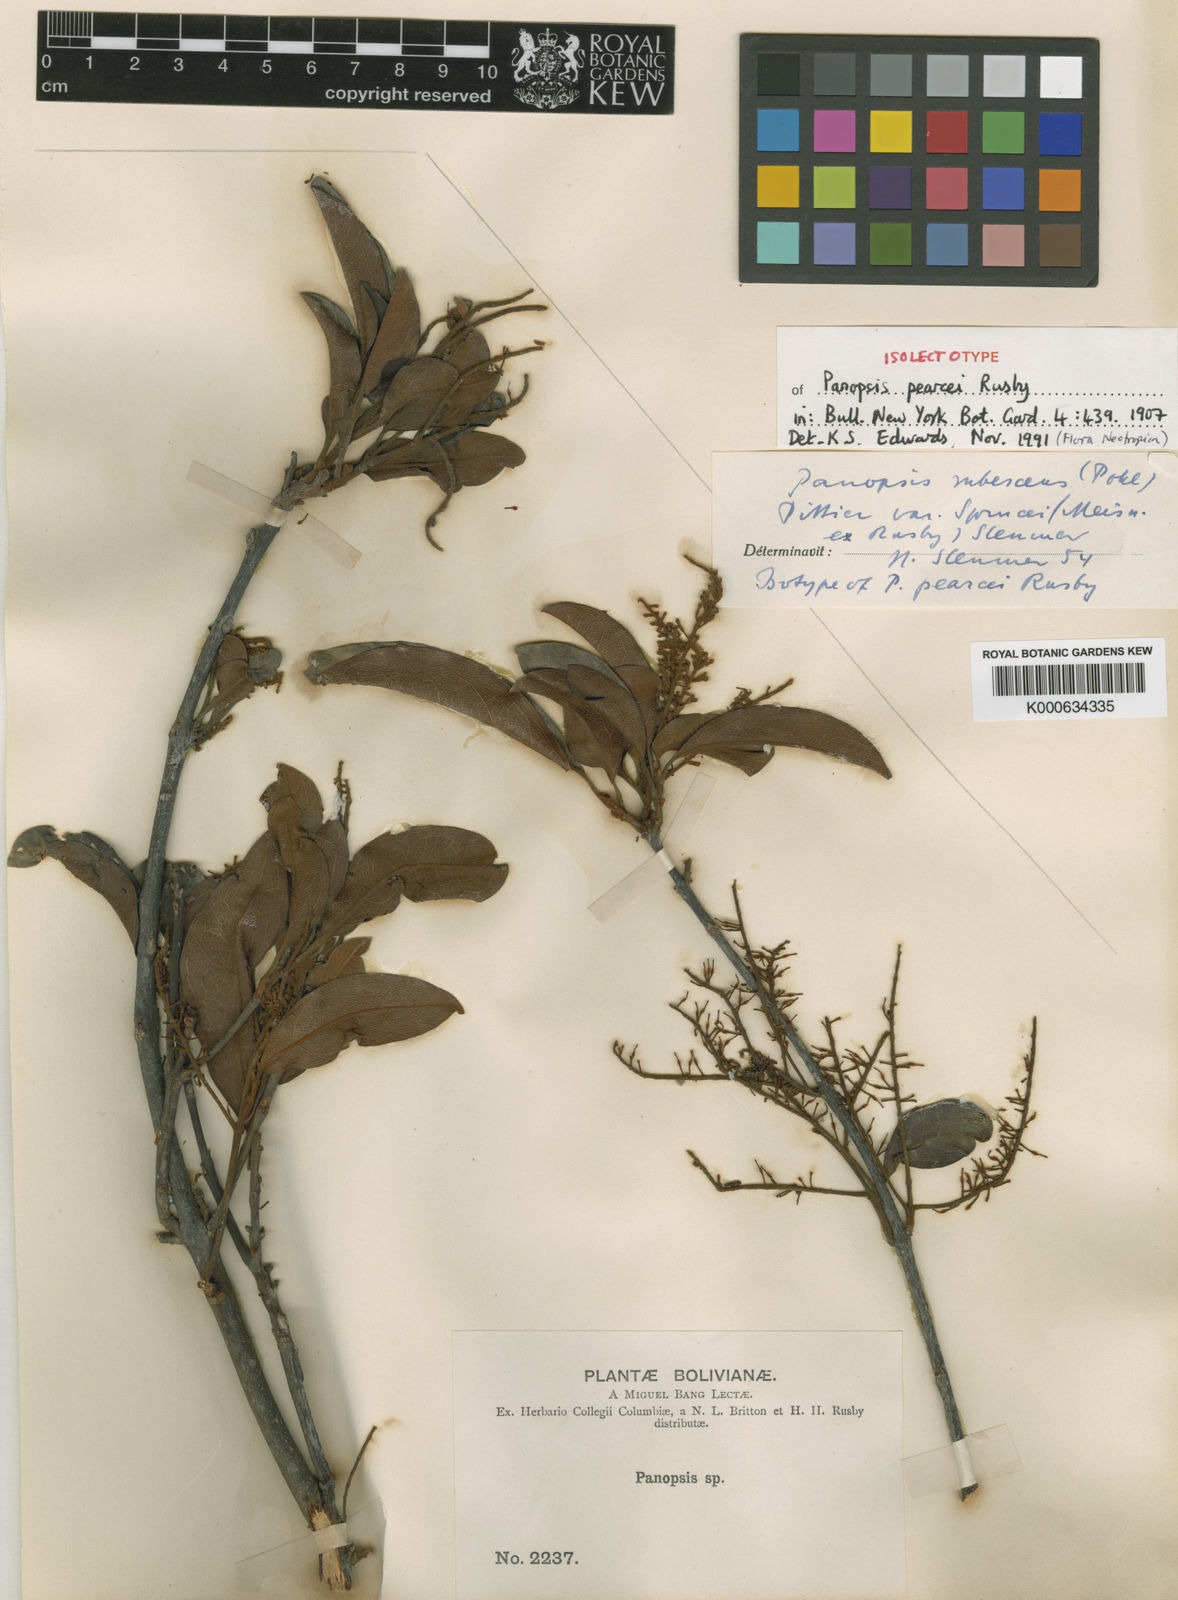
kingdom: Plantae
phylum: Tracheophyta
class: Magnoliopsida
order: Proteales
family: Proteaceae
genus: Panopsis
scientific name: Panopsis pearcei
